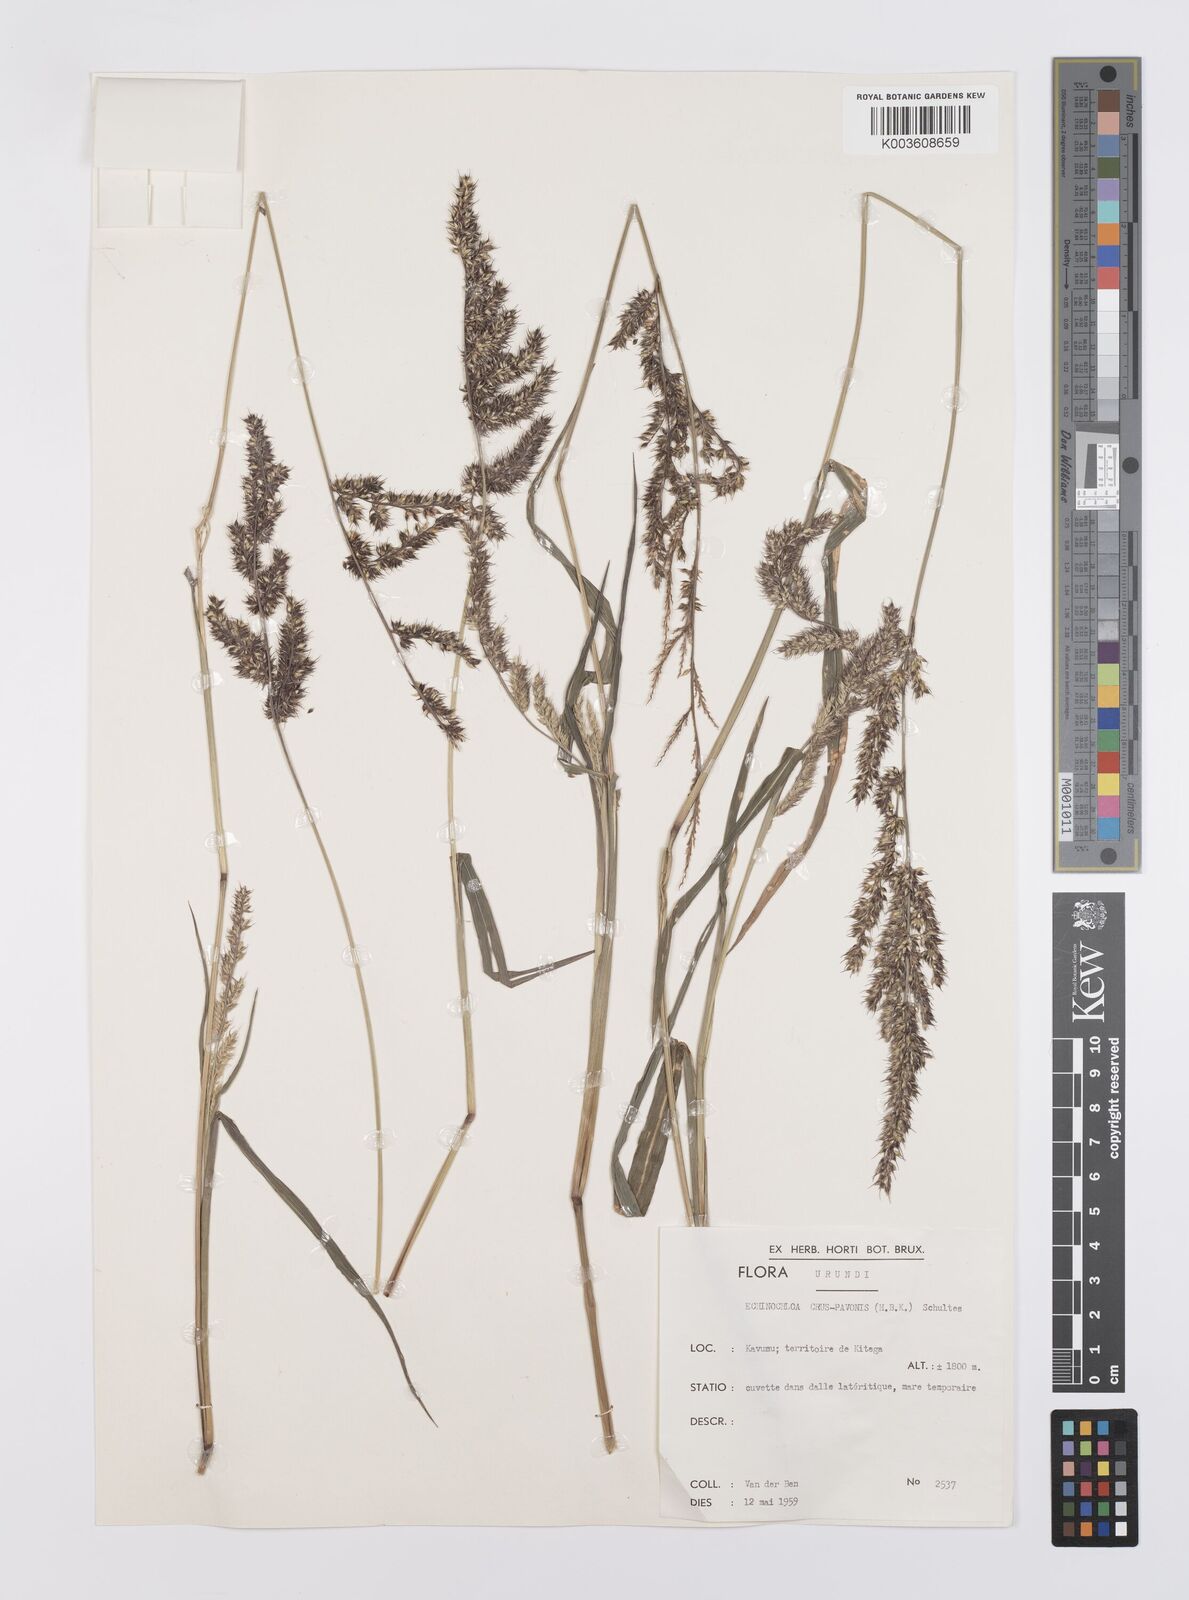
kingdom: Plantae
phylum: Tracheophyta
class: Liliopsida
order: Poales
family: Poaceae
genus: Echinochloa
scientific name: Echinochloa crus-pavonis
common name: Gulf cockspur grass
